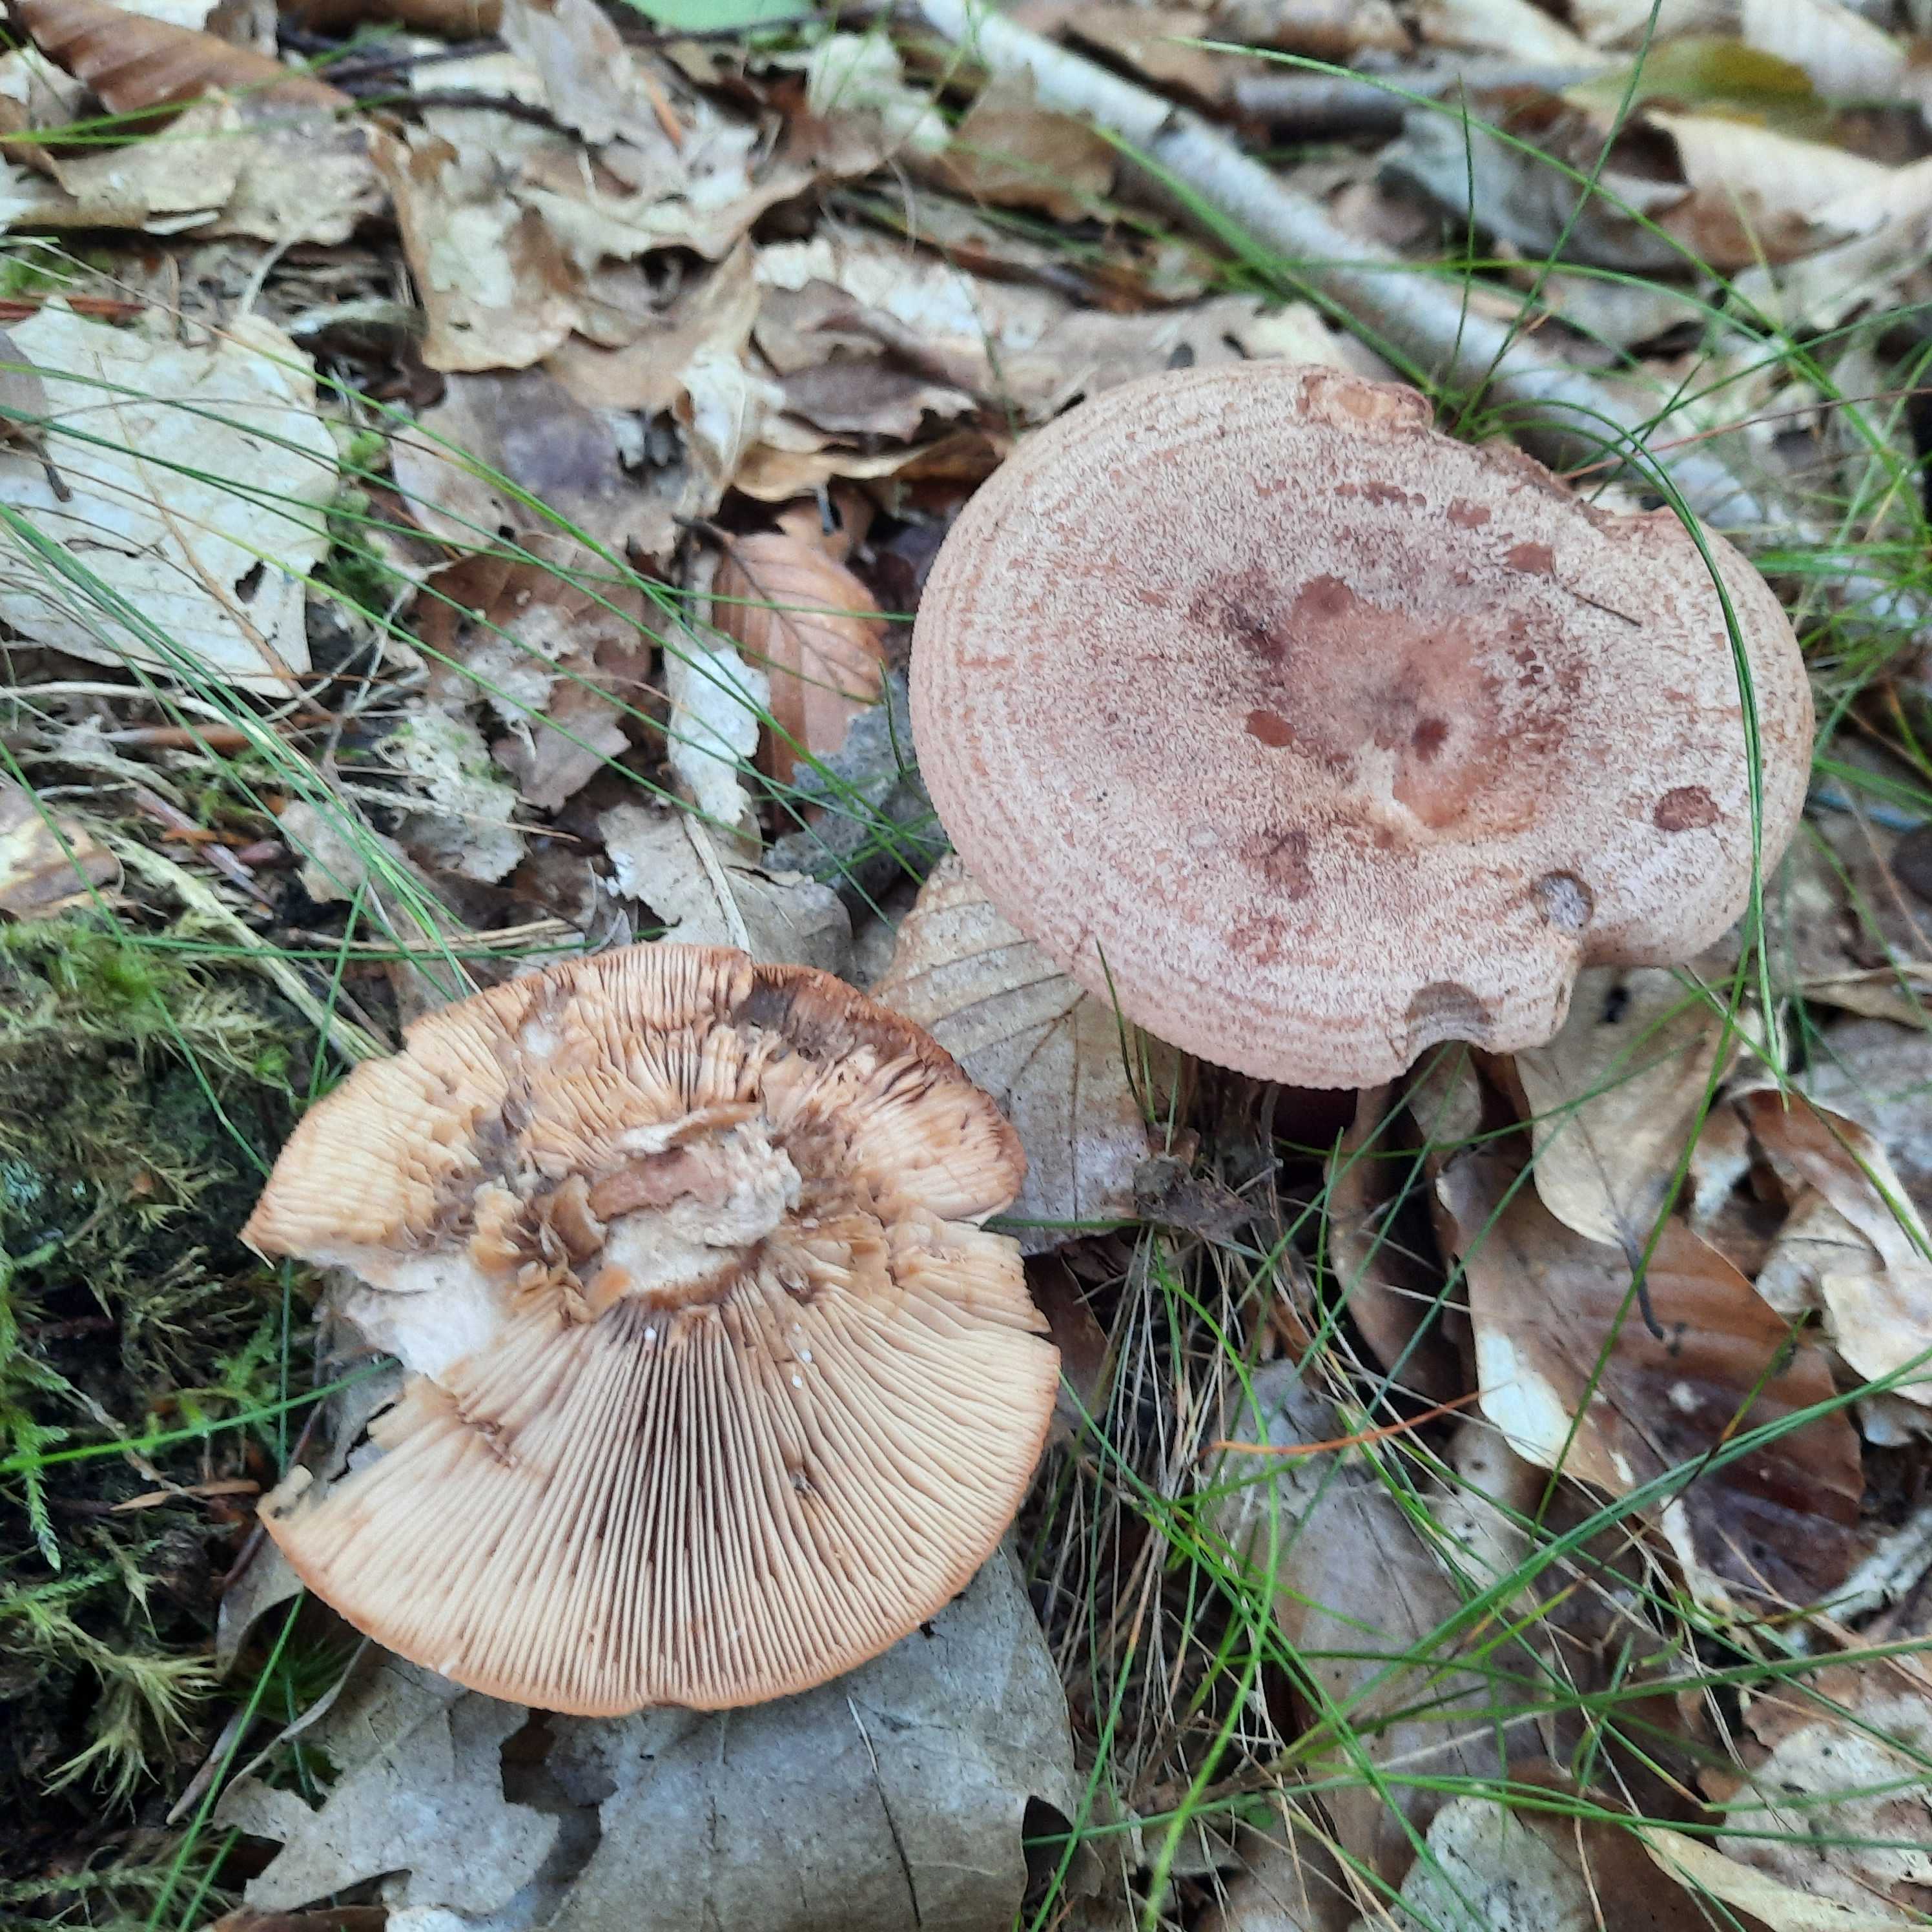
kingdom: Fungi
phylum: Basidiomycota
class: Agaricomycetes
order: Russulales
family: Russulaceae
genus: Lactarius
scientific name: Lactarius quietus
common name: ege-mælkehat
